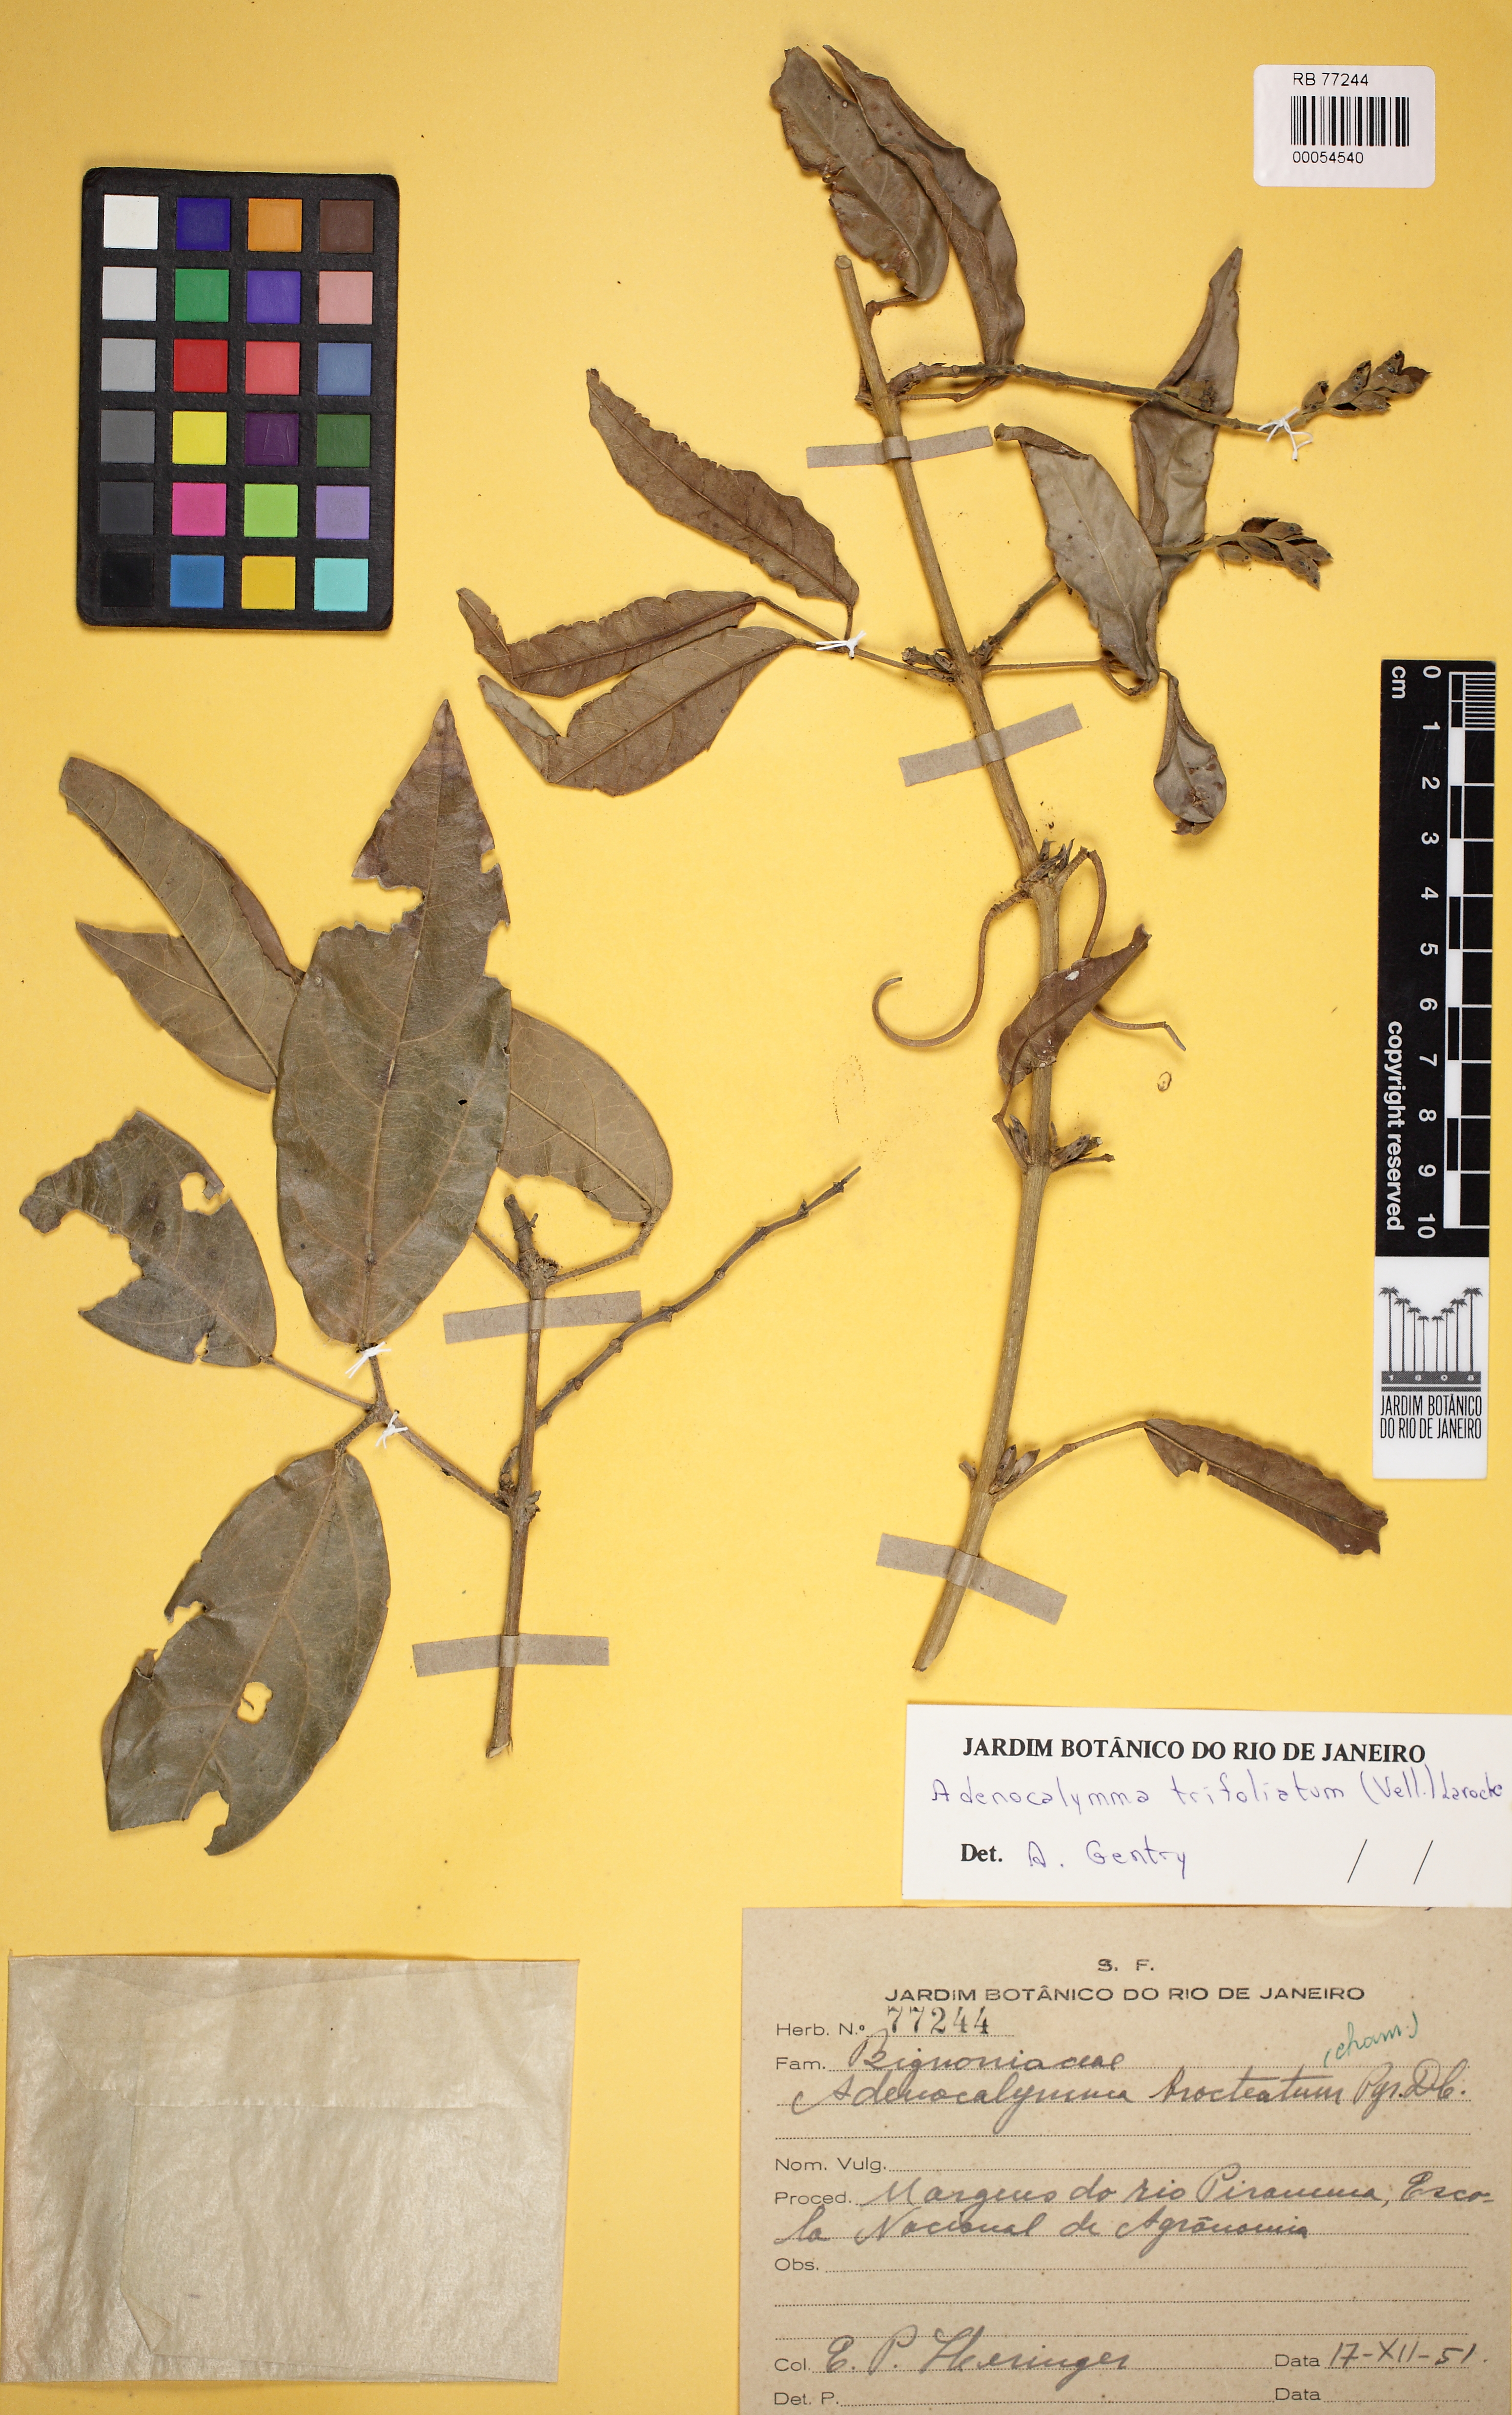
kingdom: Plantae
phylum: Tracheophyta
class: Magnoliopsida
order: Lamiales
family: Bignoniaceae
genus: Adenocalymma
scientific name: Adenocalymma bracteatum
